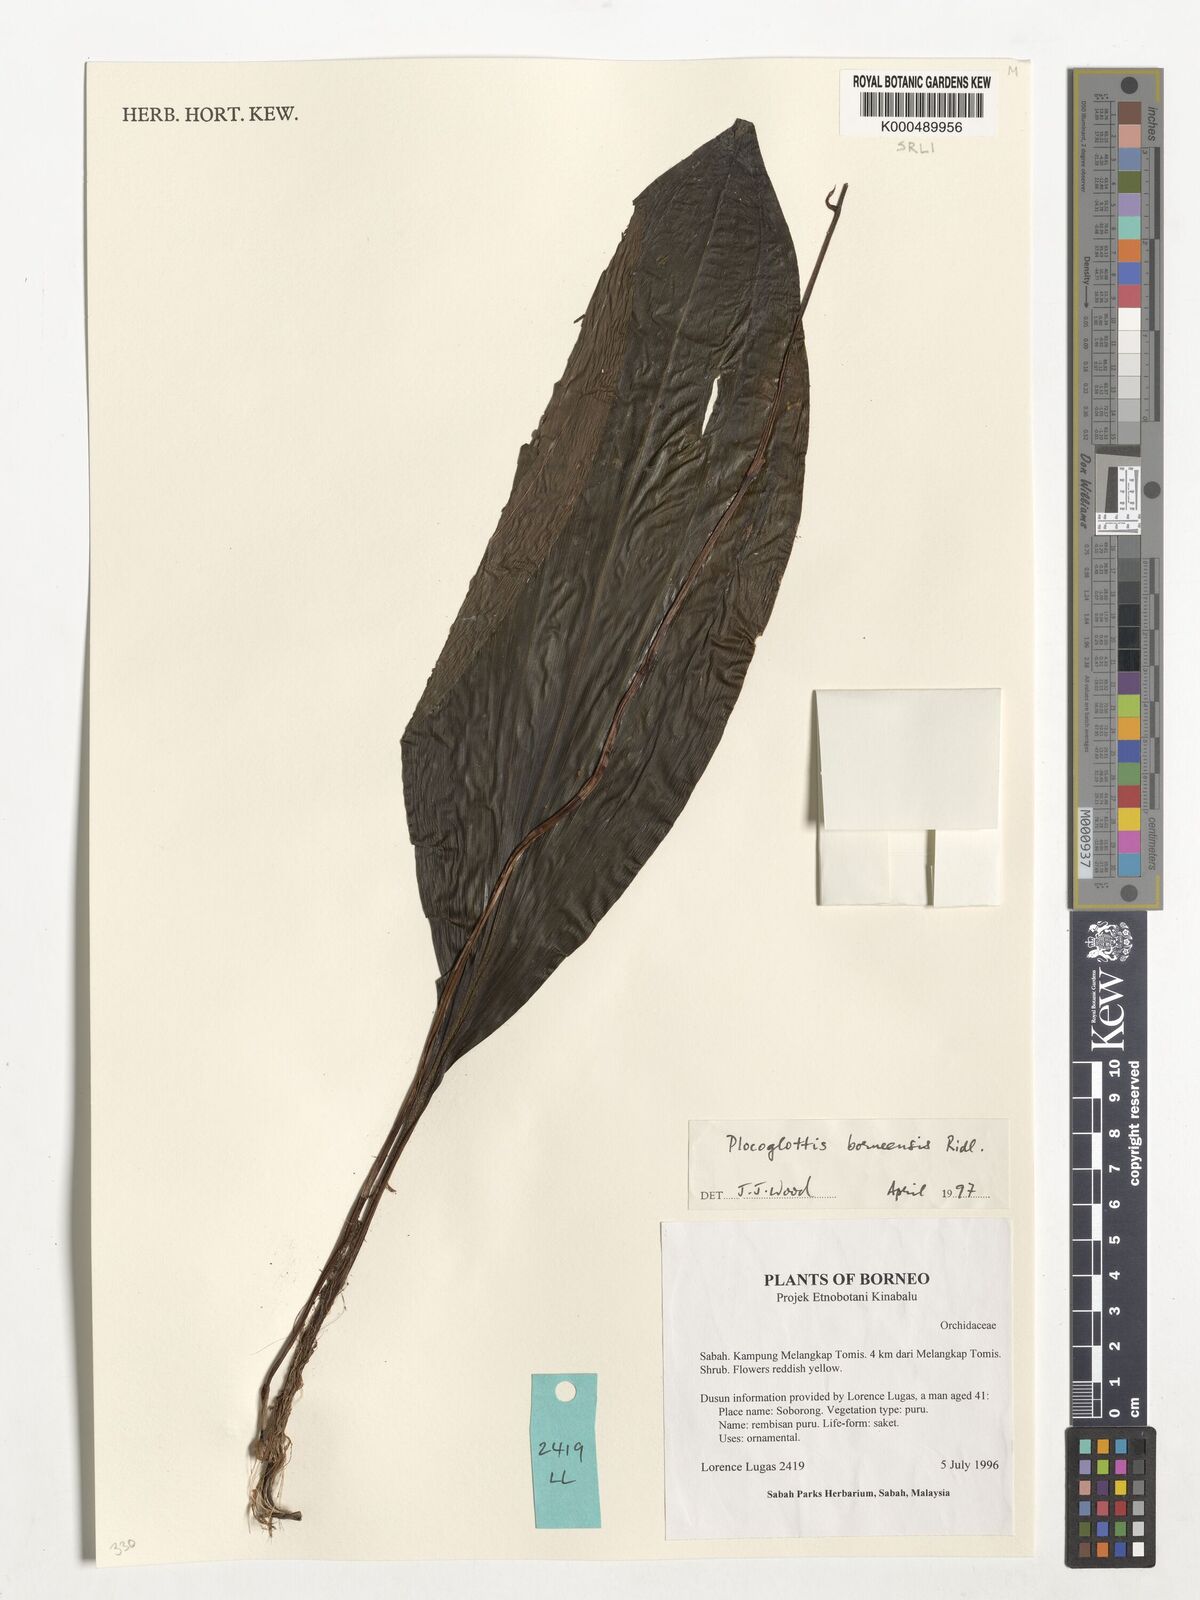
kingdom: Plantae
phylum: Tracheophyta
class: Liliopsida
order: Asparagales
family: Orchidaceae
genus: Plocoglottis
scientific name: Plocoglottis borneensis
